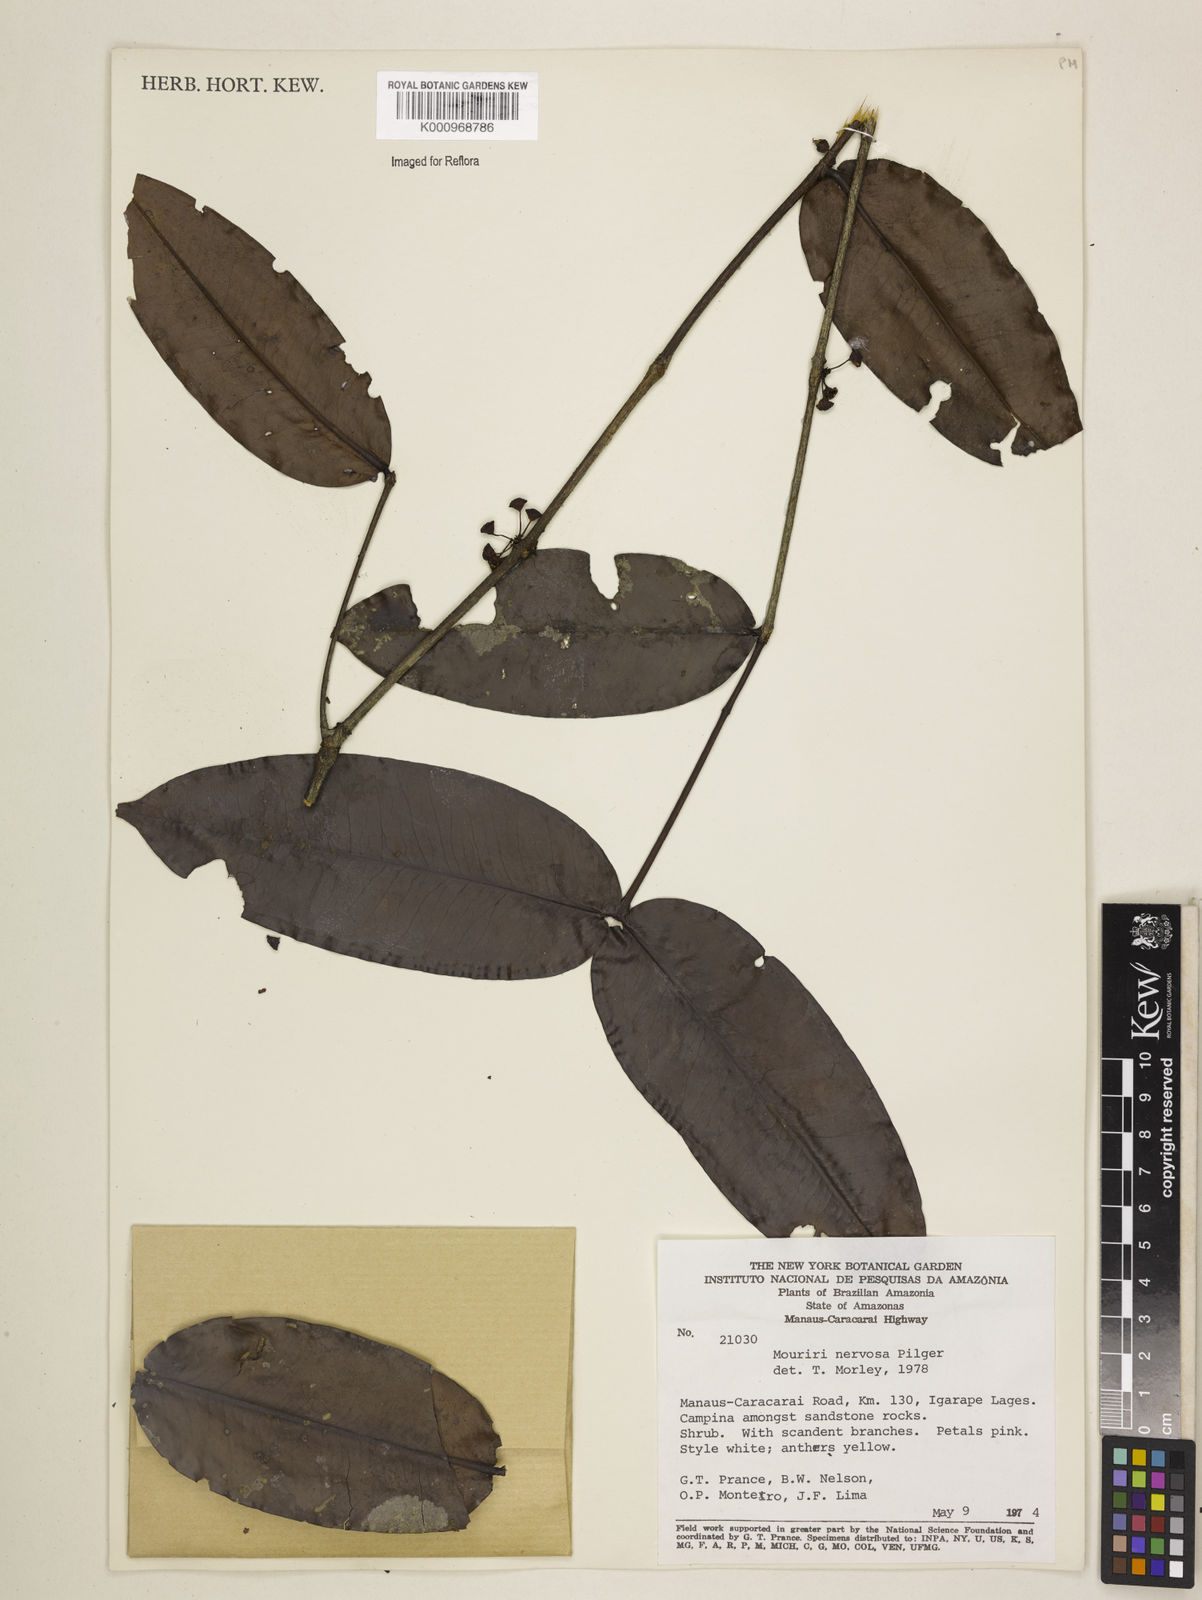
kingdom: Plantae
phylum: Tracheophyta
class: Magnoliopsida
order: Myrtales
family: Melastomataceae
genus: Mouriri
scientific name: Mouriri sideroxylon
